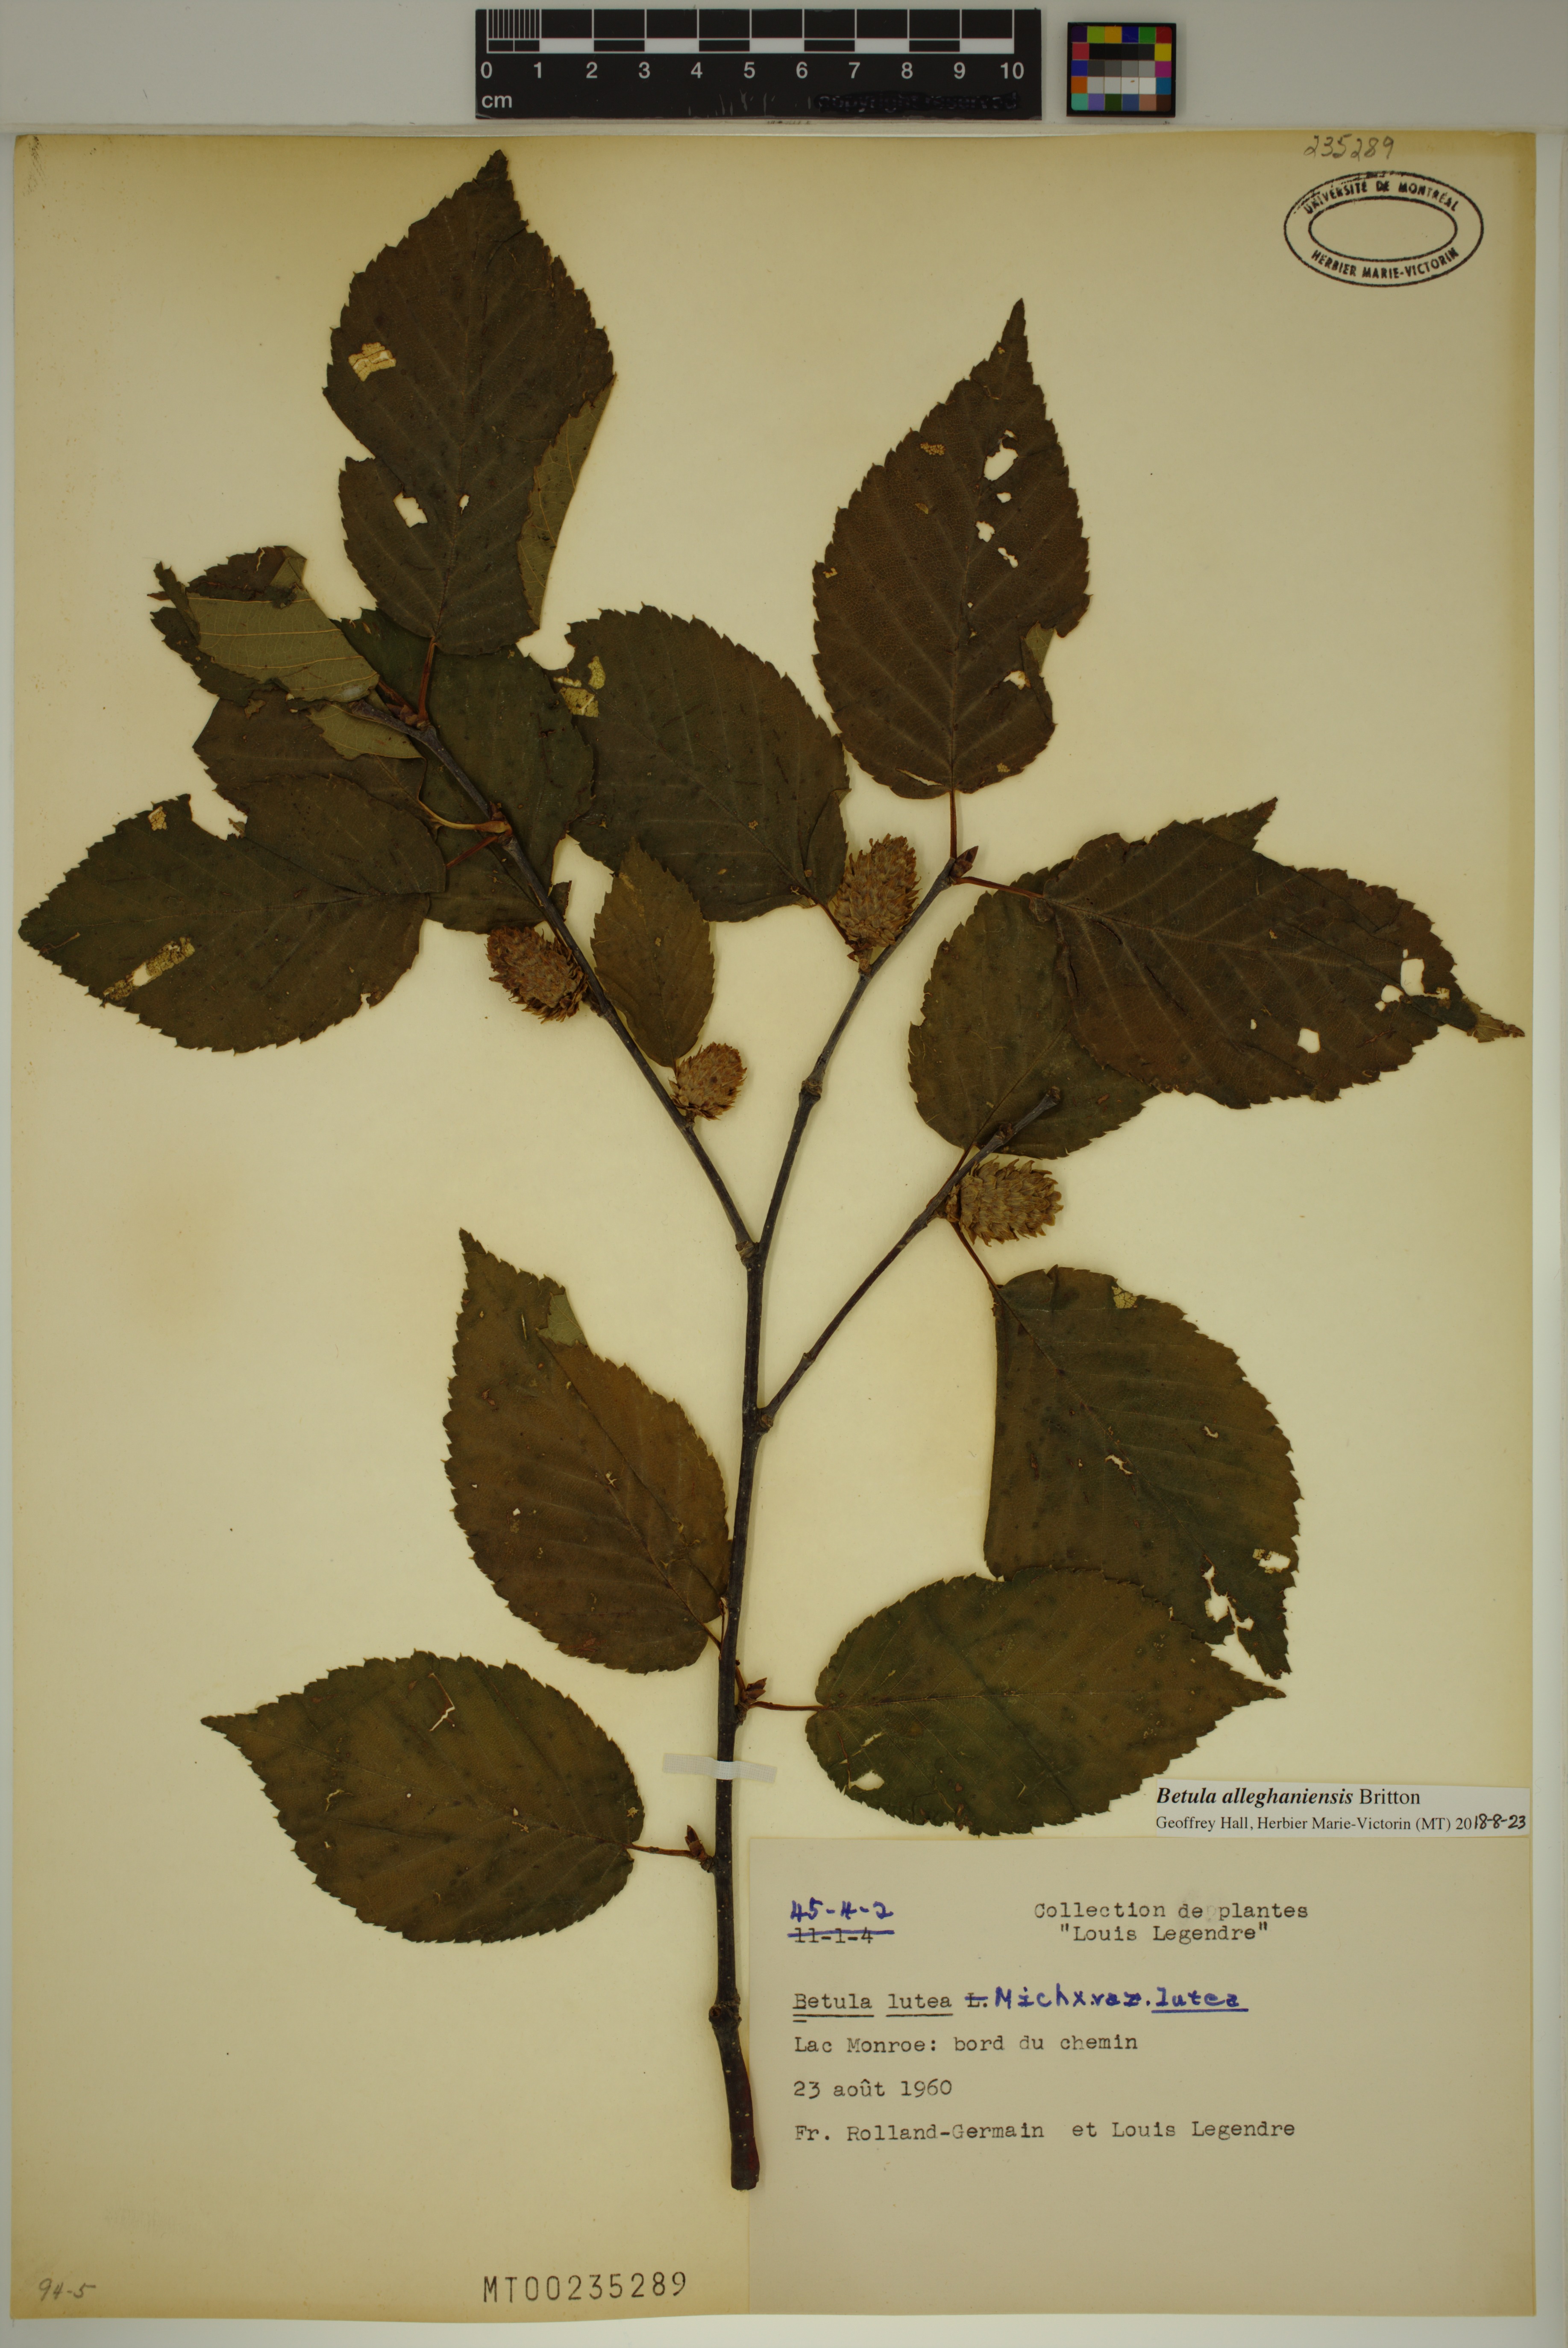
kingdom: Plantae
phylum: Tracheophyta
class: Magnoliopsida
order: Fagales
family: Betulaceae
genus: Betula
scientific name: Betula alleghaniensis
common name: Yellow birch
